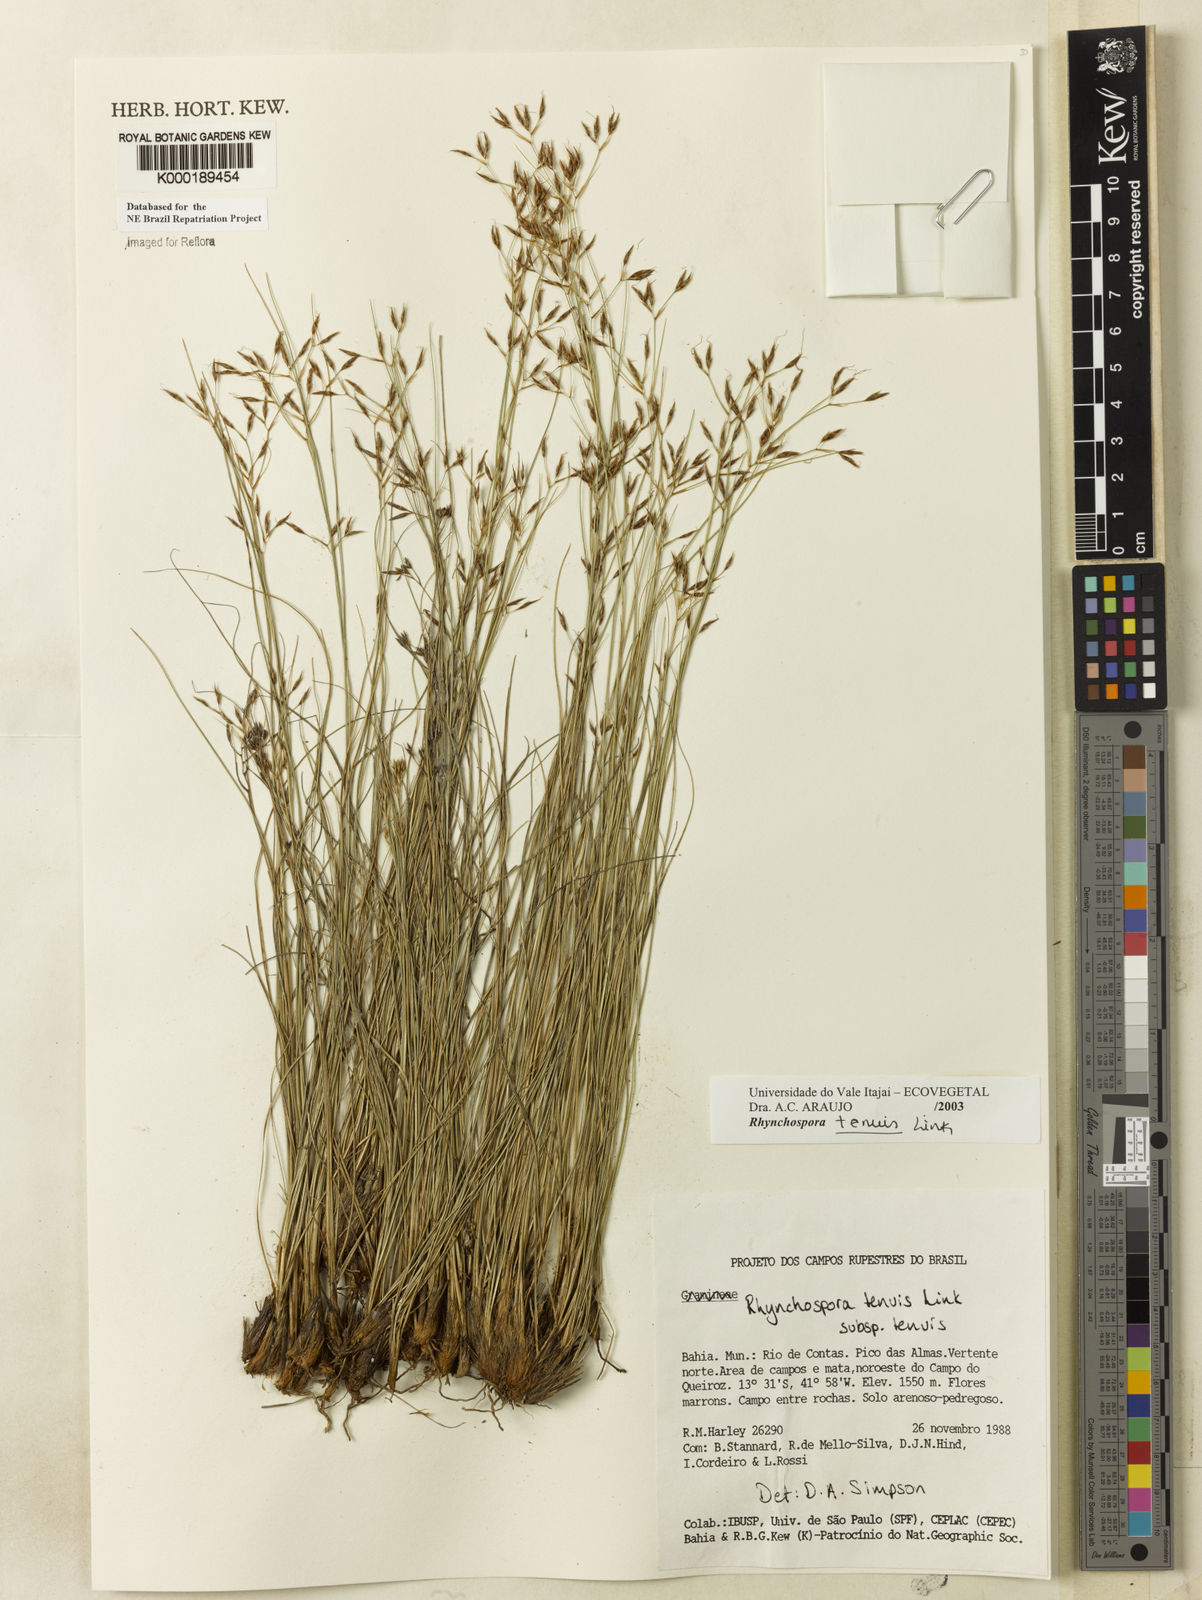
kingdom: Plantae
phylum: Tracheophyta
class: Liliopsida
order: Poales
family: Cyperaceae
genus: Rhynchospora
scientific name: Rhynchospora tenuis
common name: Quill beaksedge
